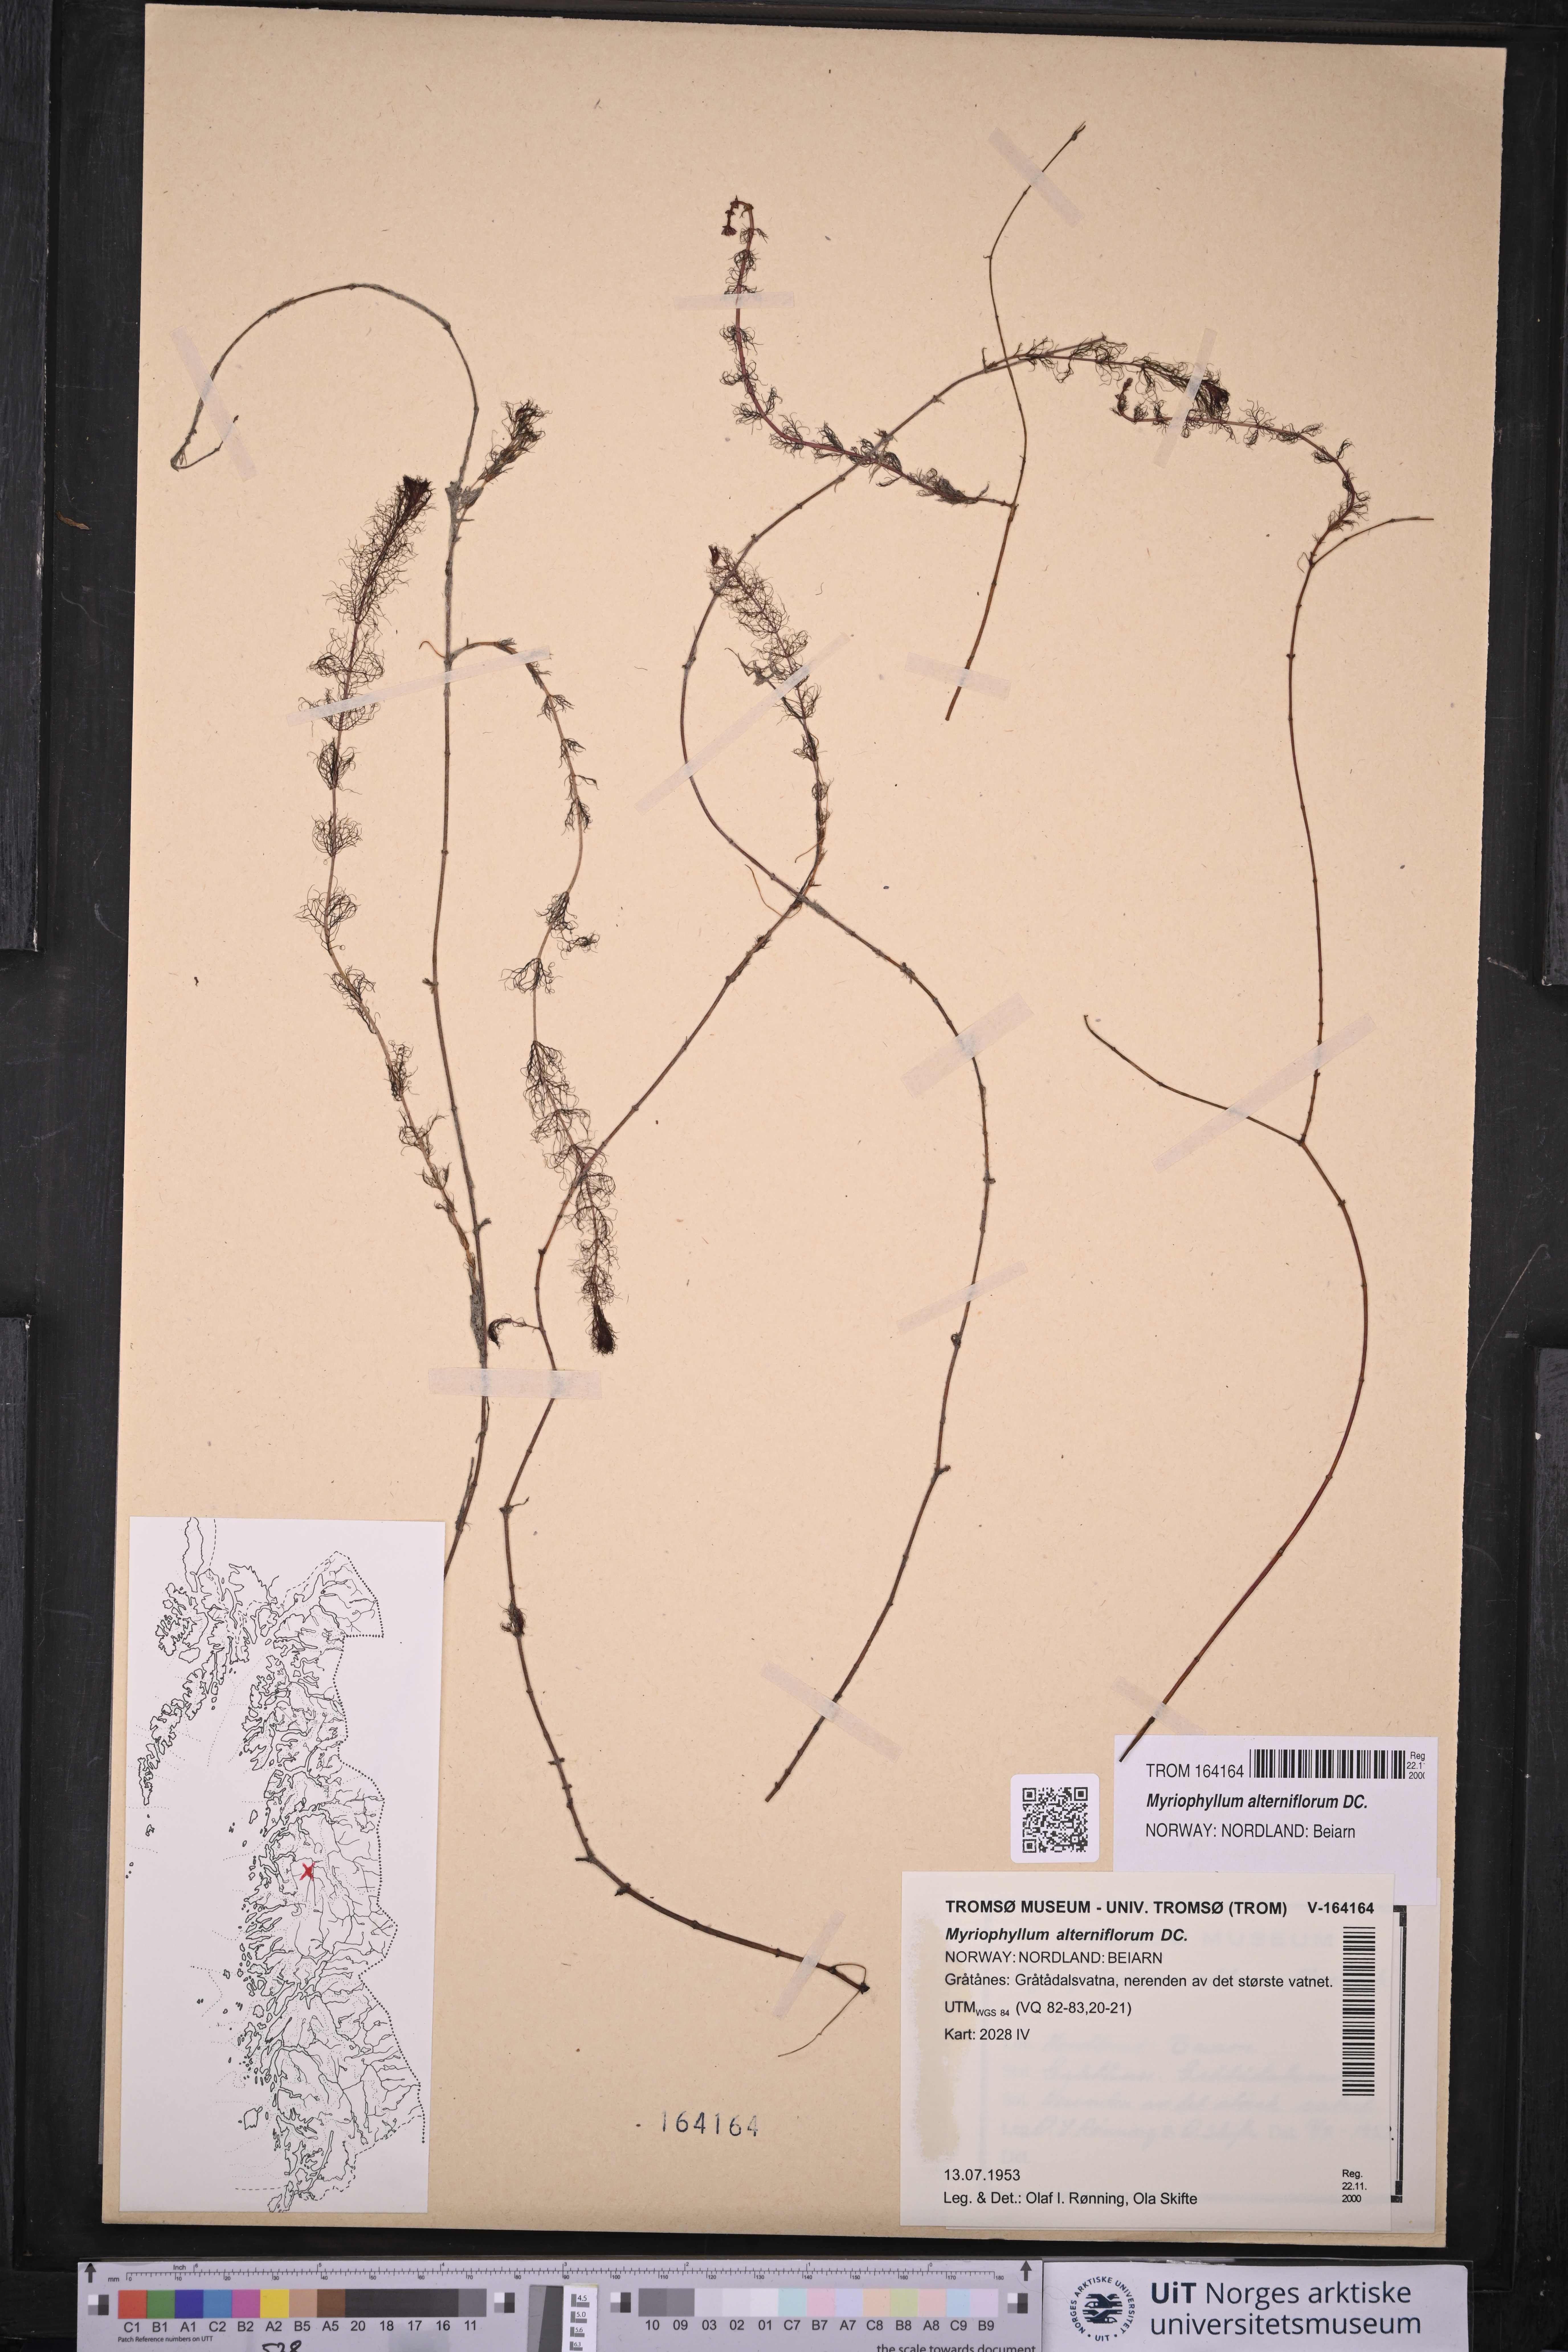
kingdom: Plantae
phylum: Tracheophyta
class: Magnoliopsida
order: Saxifragales
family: Haloragaceae
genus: Myriophyllum
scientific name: Myriophyllum alterniflorum
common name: Alternate water-milfoil
